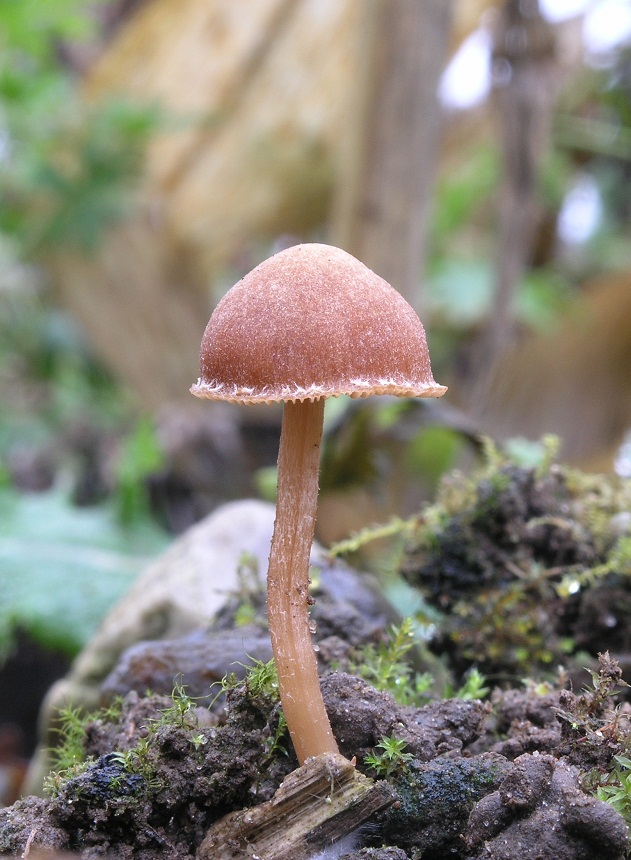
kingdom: Fungi
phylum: Basidiomycota
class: Agaricomycetes
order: Agaricales
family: Tubariaceae
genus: Tubaria
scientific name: Tubaria furfuracea
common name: kliddet fnughat
